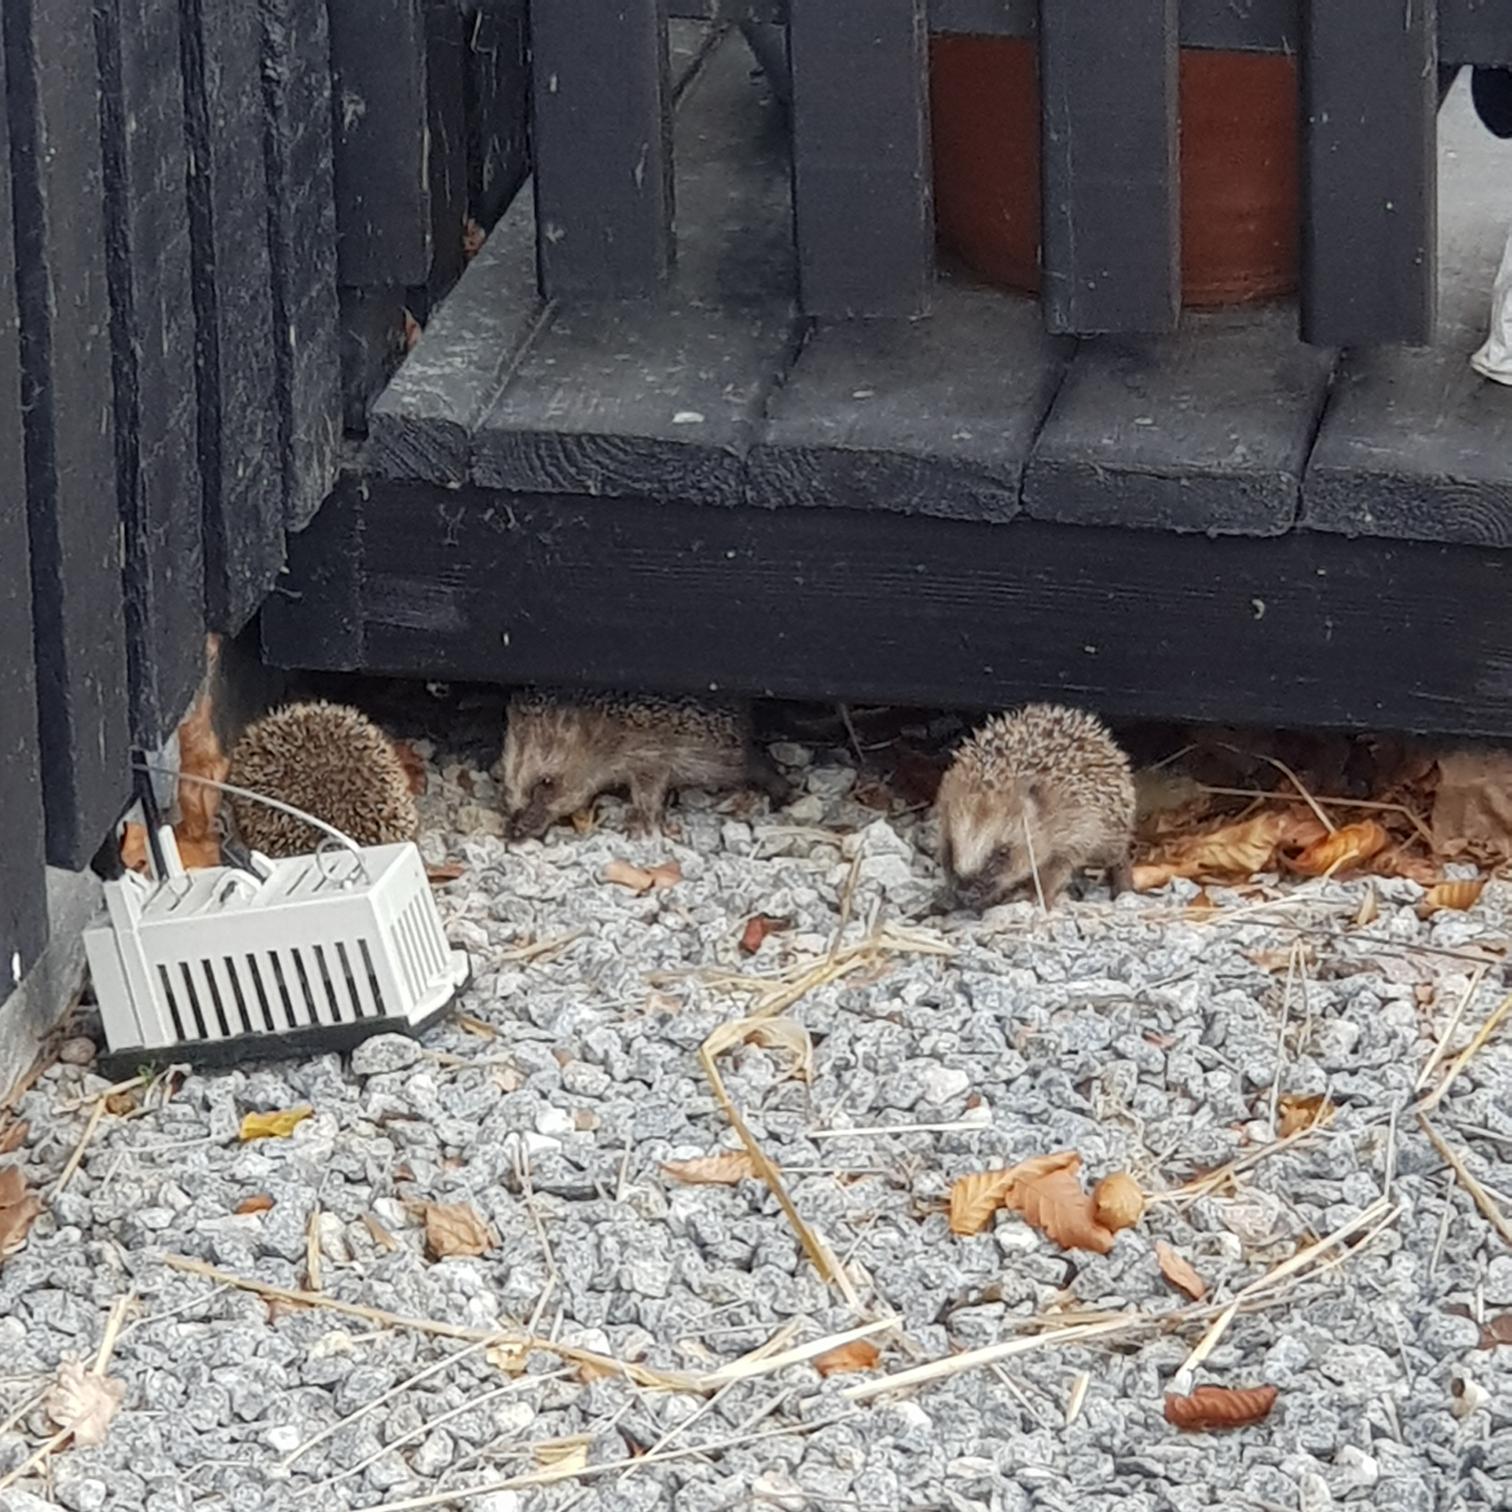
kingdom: Animalia
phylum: Chordata
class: Mammalia
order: Erinaceomorpha
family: Erinaceidae
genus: Erinaceus
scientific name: Erinaceus europaeus
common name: Pindsvin
